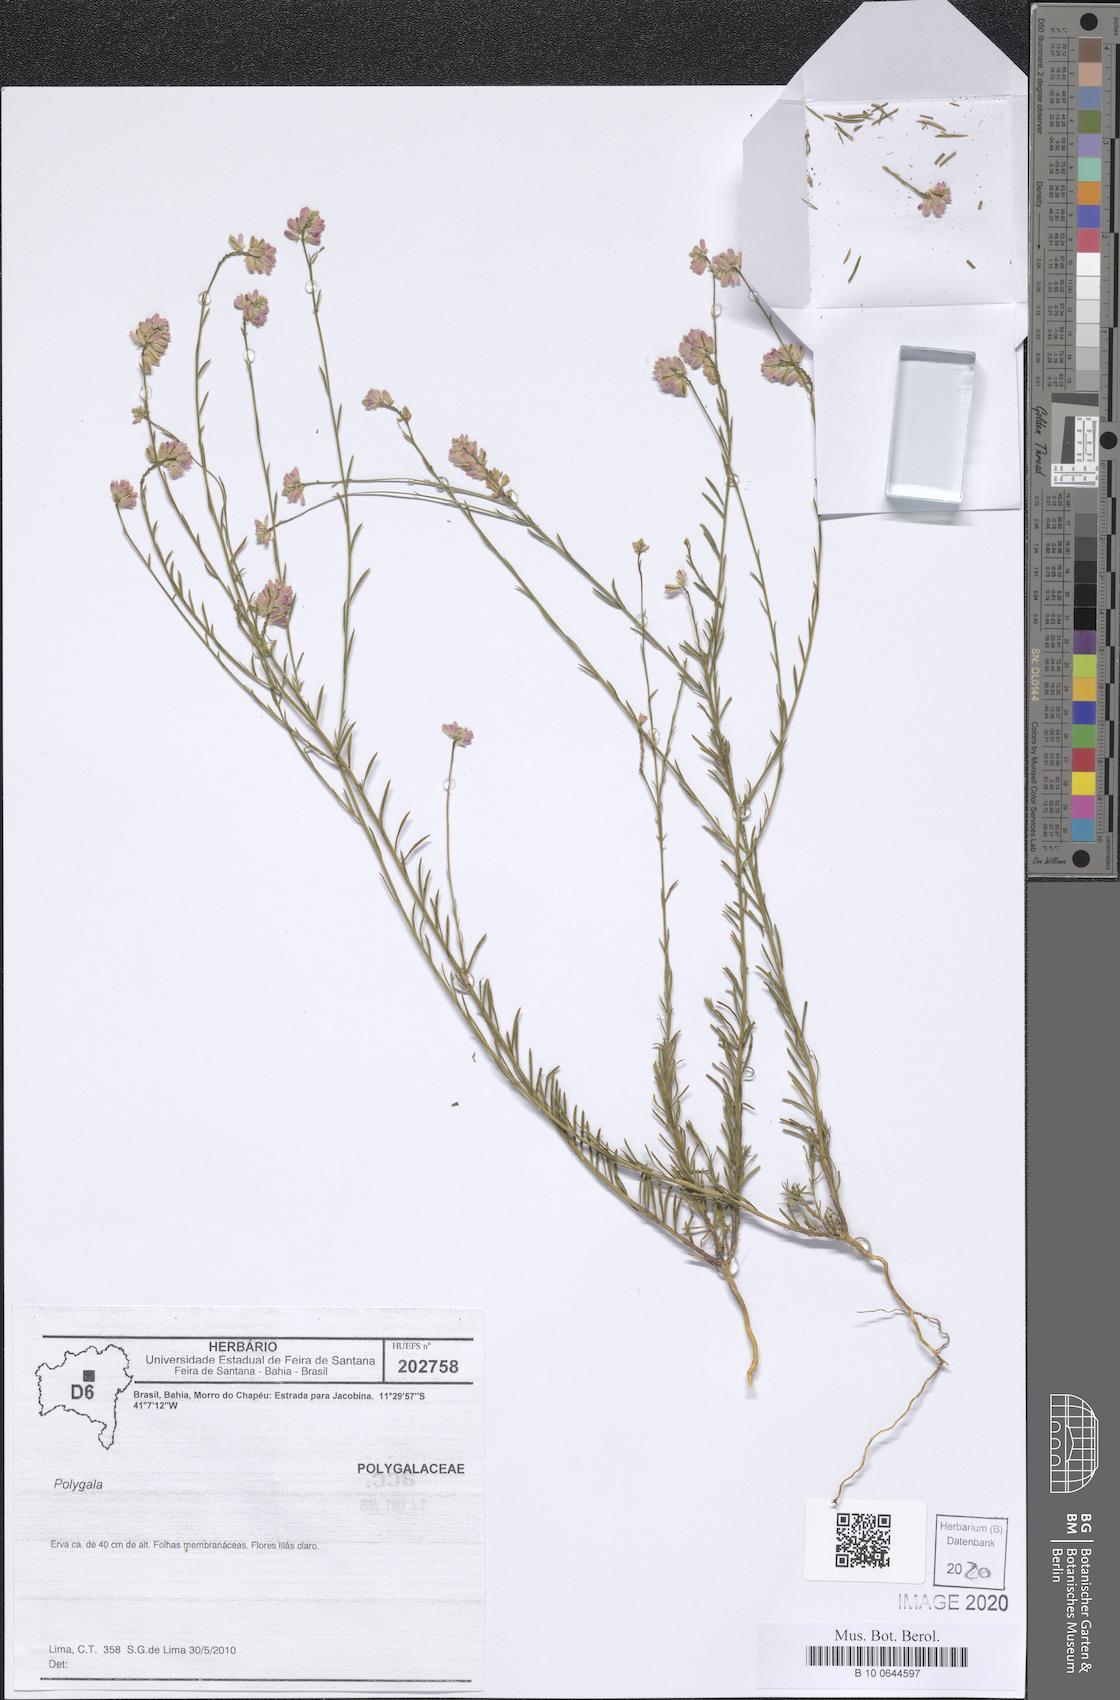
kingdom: Plantae
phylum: Tracheophyta
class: Magnoliopsida
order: Fabales
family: Polygalaceae
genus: Polygala
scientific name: Polygala
